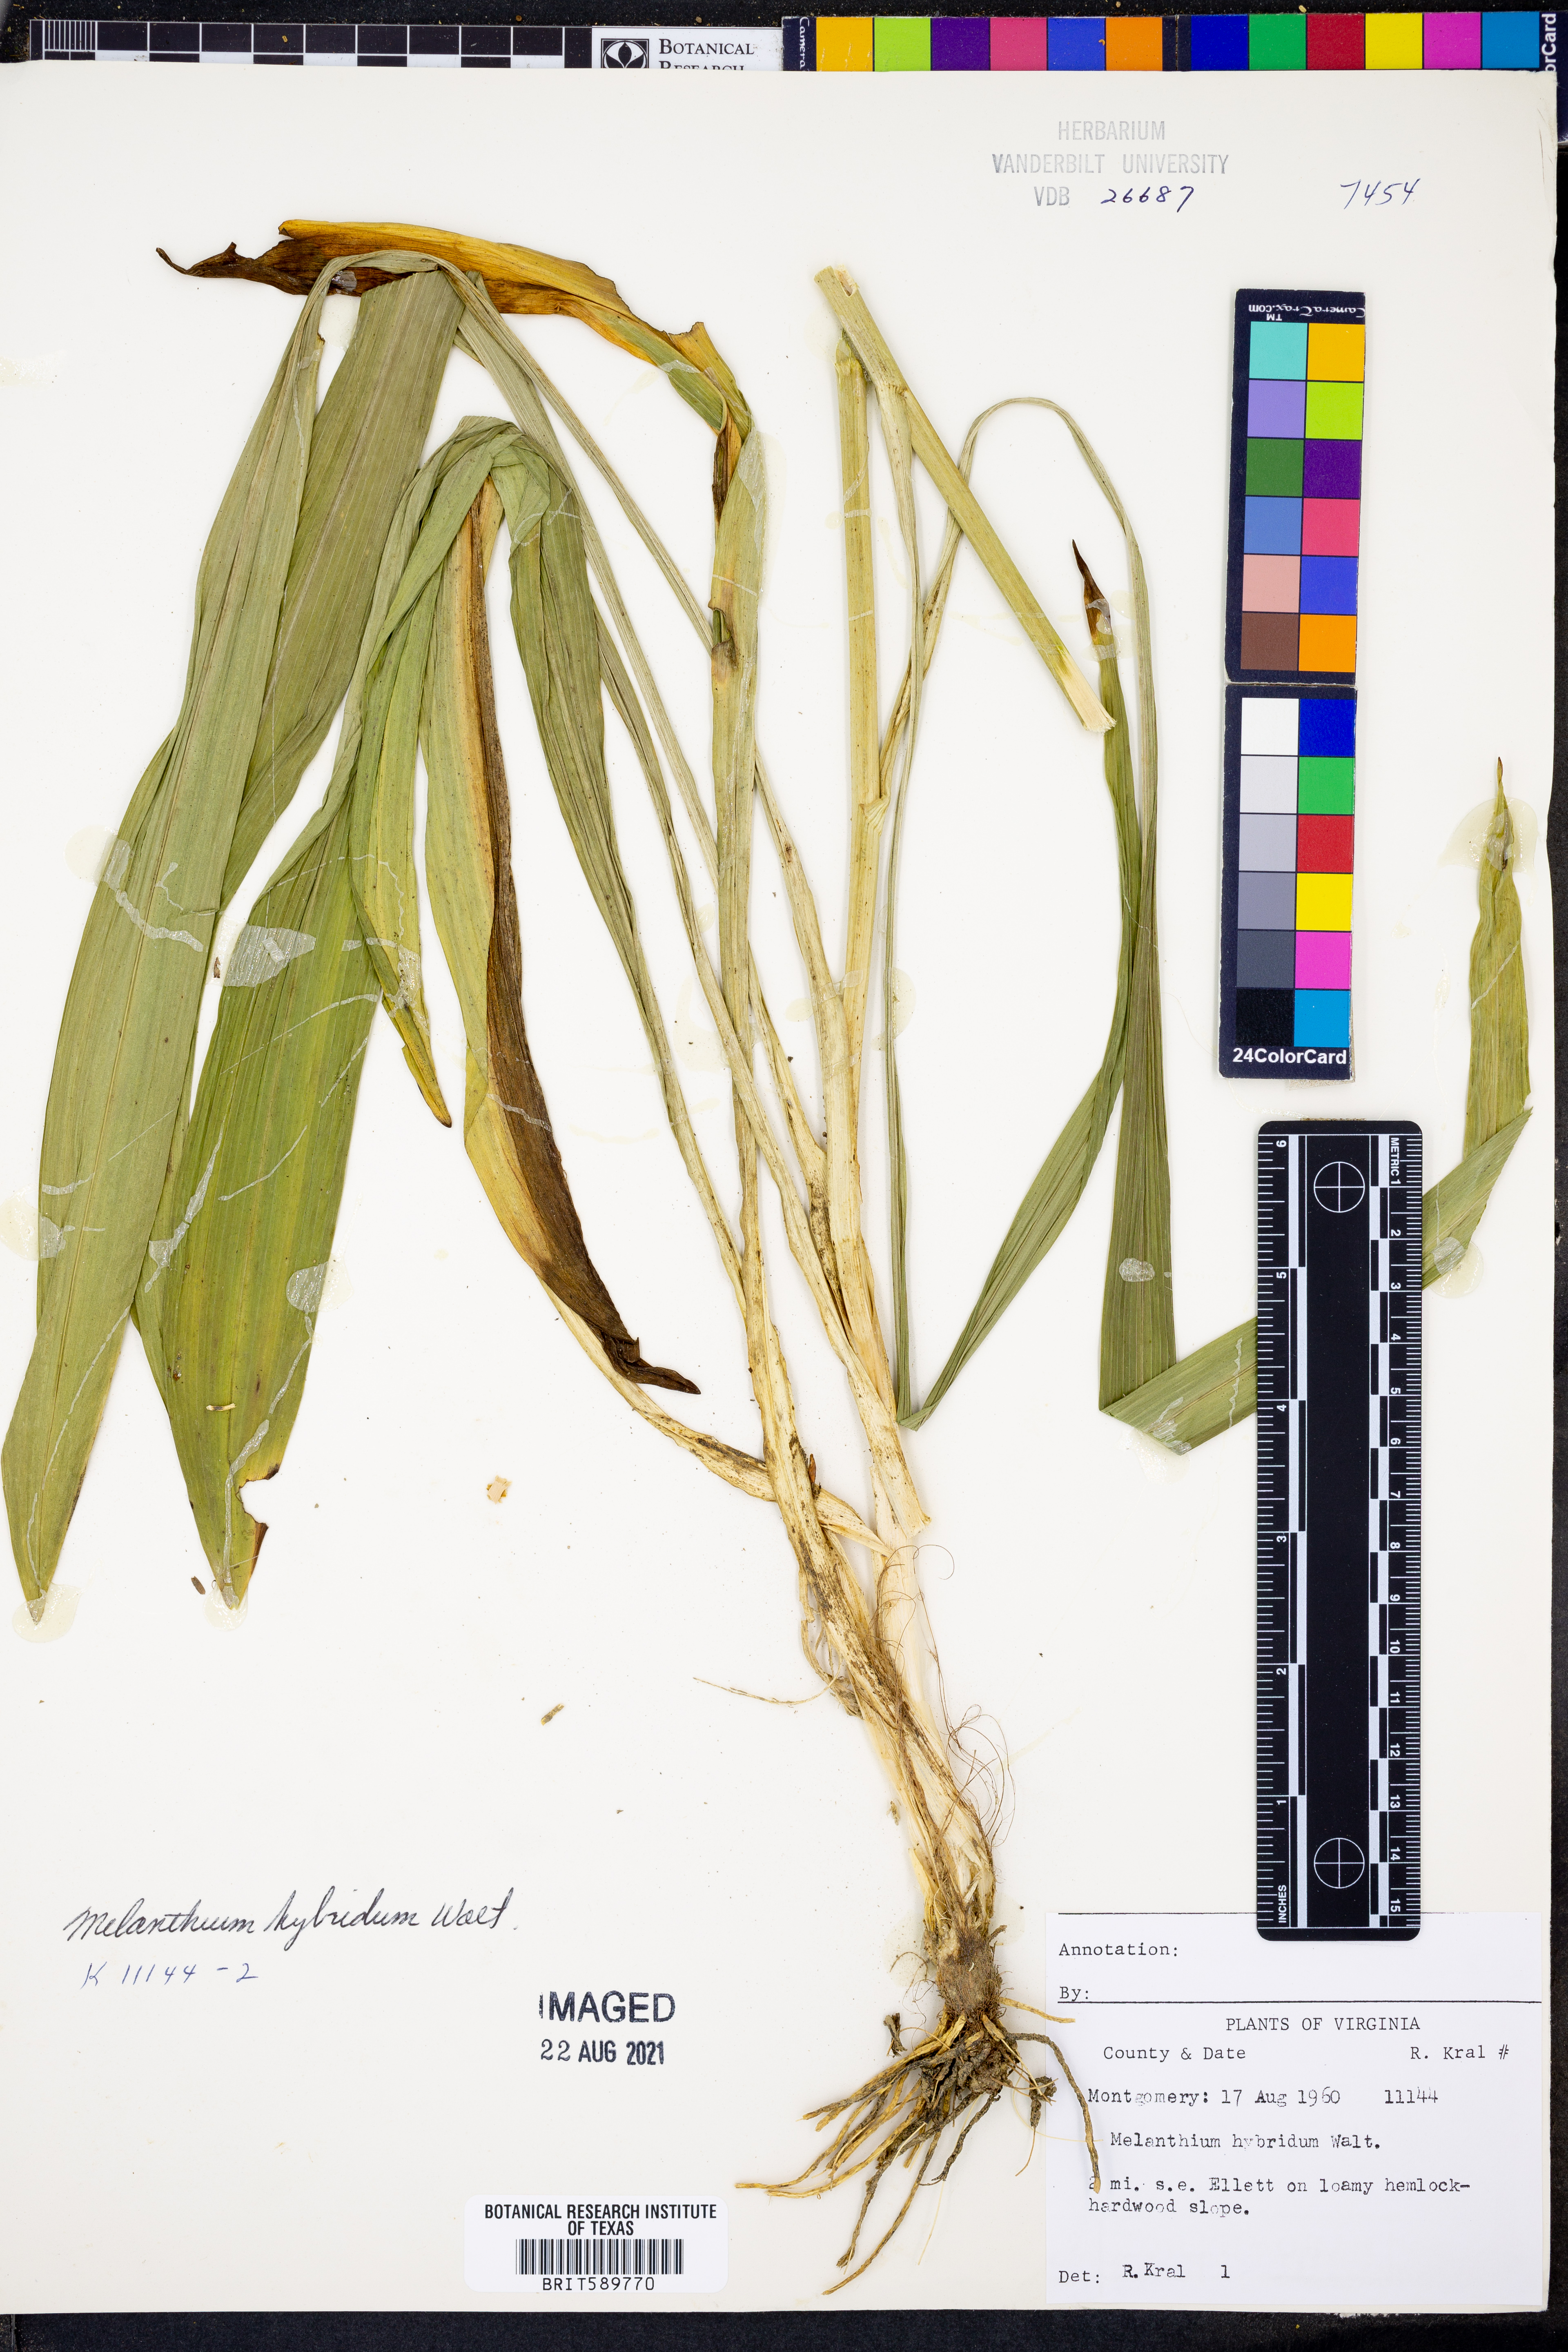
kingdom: Plantae
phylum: Tracheophyta
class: Liliopsida
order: Liliales
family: Melanthiaceae
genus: Melanthium
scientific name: Melanthium hybridum
